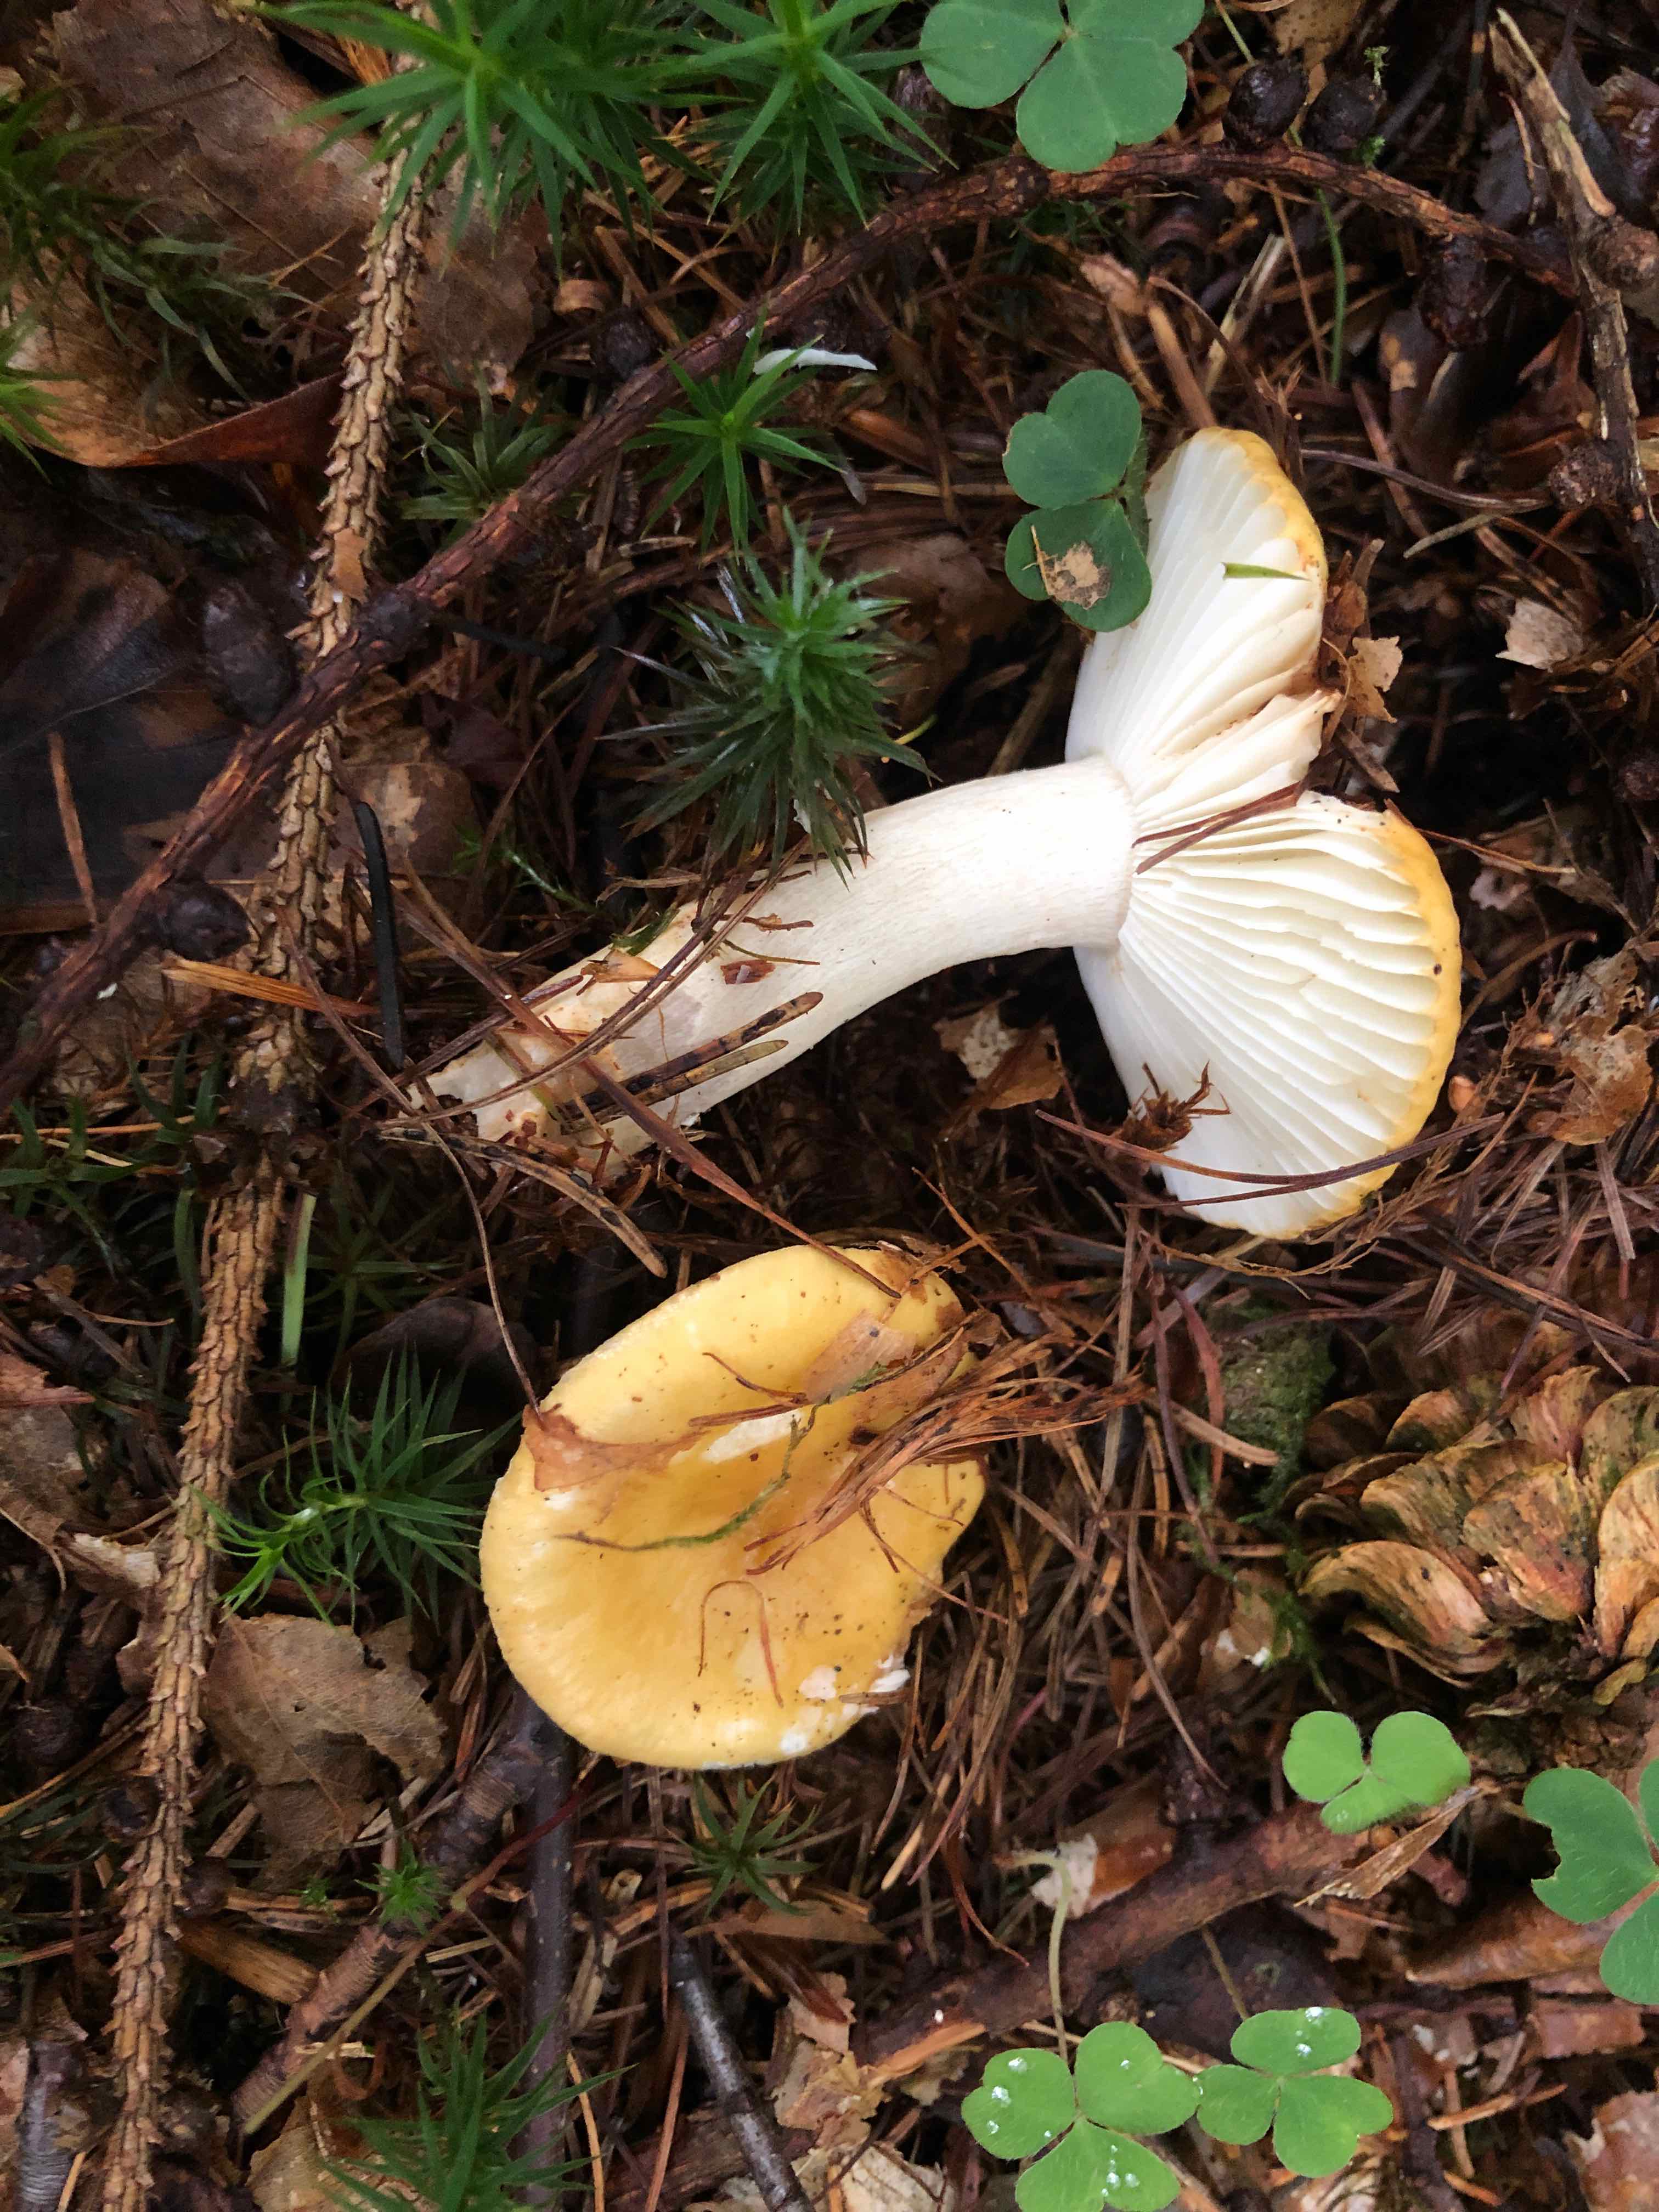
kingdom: Fungi
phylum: Basidiomycota
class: Agaricomycetes
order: Russulales
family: Russulaceae
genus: Russula
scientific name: Russula ochroleuca
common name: okkergul skørhat
